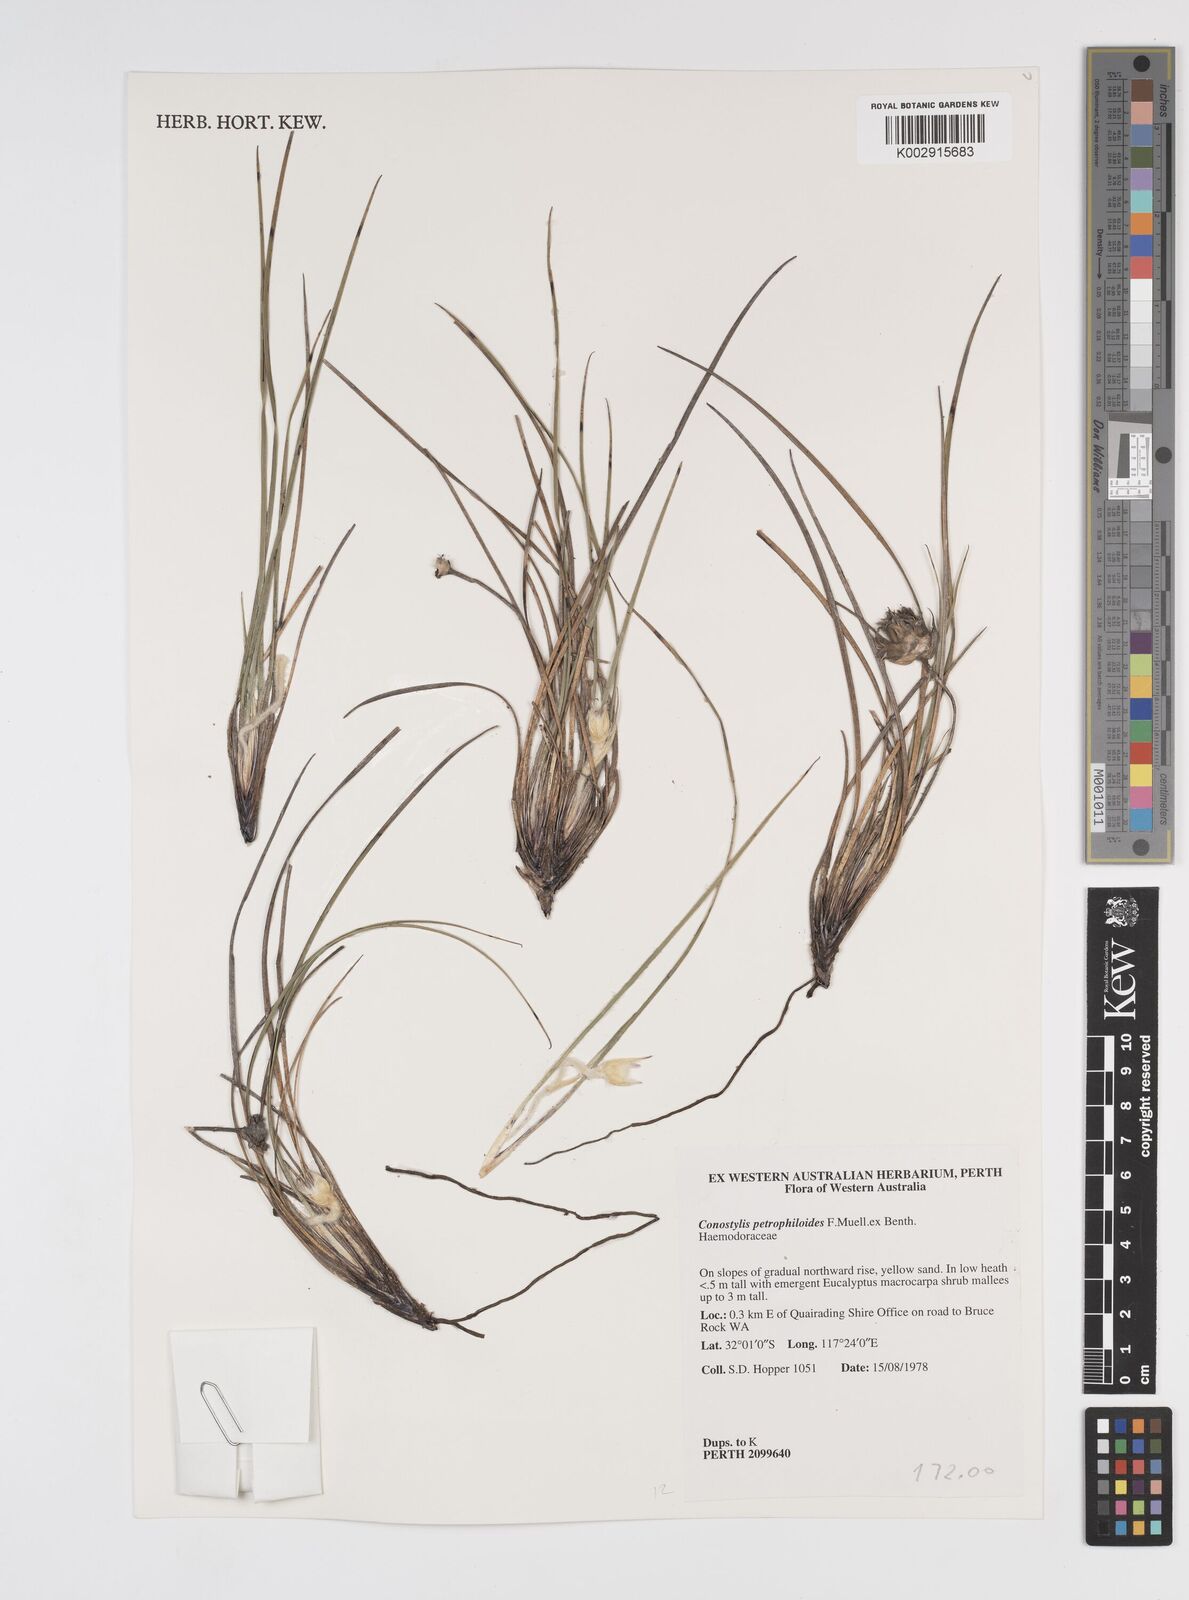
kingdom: Plantae
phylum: Tracheophyta
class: Liliopsida
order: Commelinales
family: Haemodoraceae
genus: Conostylis
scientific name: Conostylis petrophiloides
